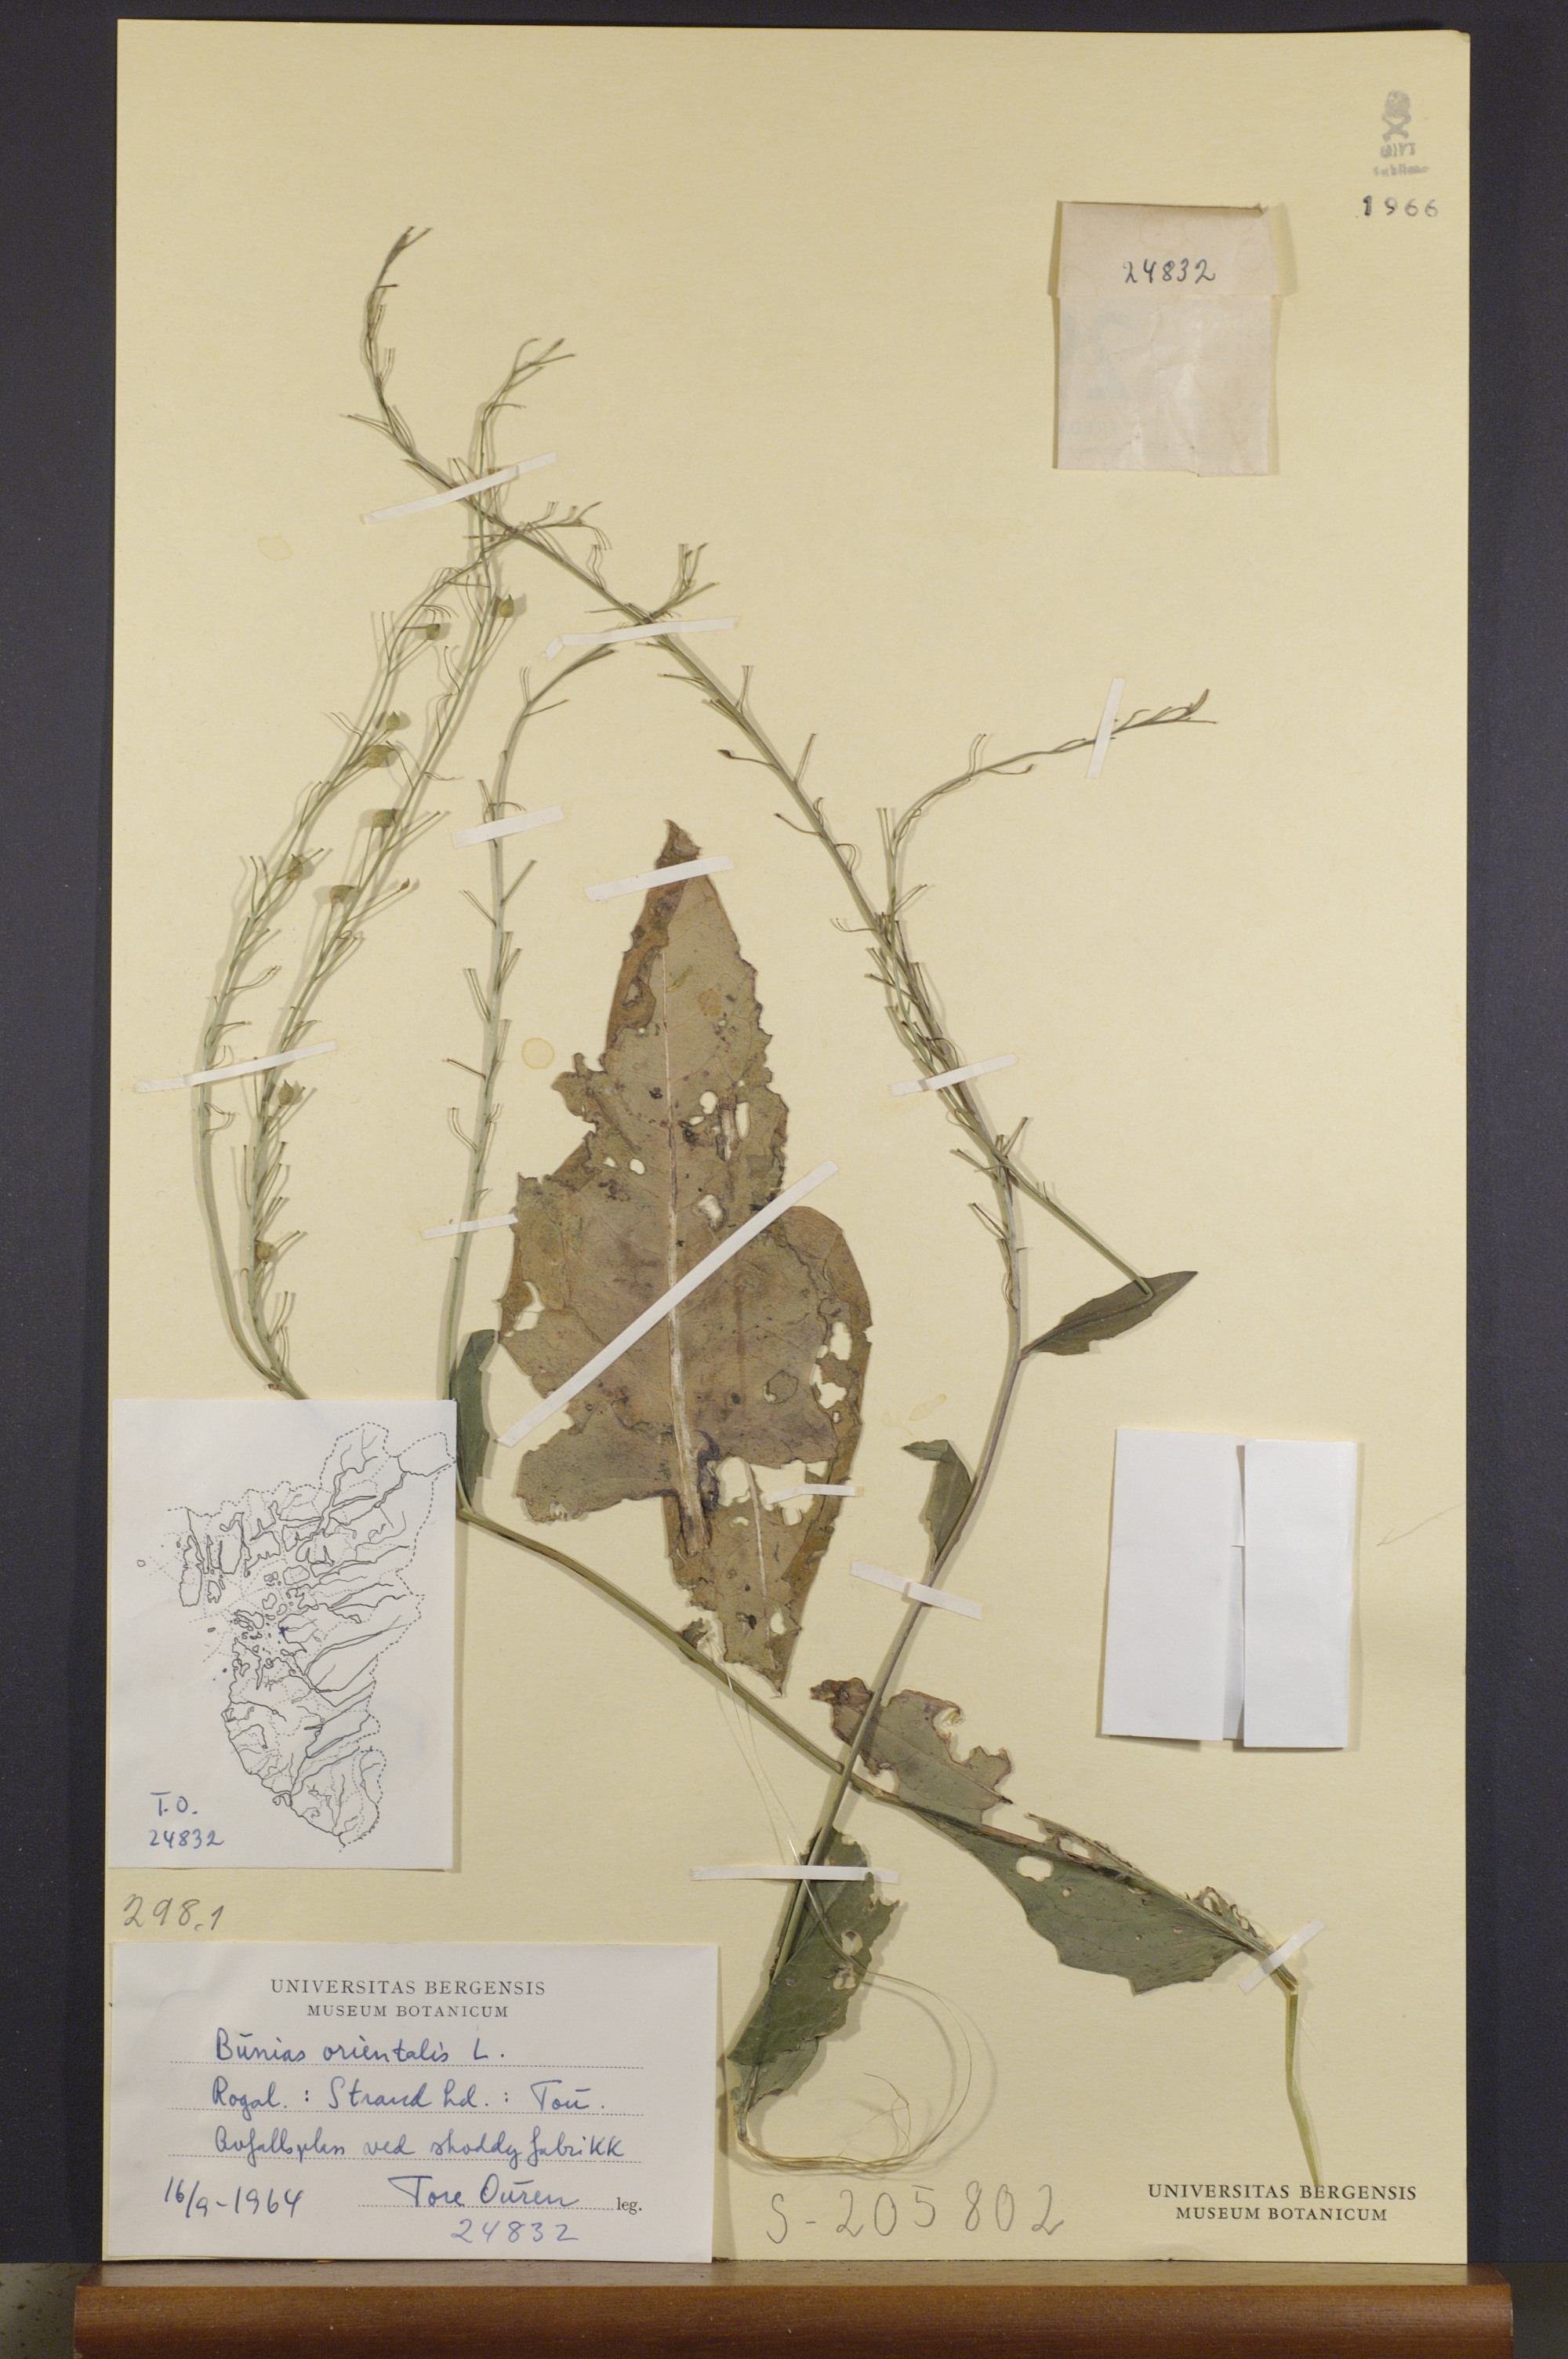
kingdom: Plantae
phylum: Tracheophyta
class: Magnoliopsida
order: Brassicales
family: Brassicaceae
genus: Bunias
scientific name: Bunias orientalis
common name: Warty-cabbage
